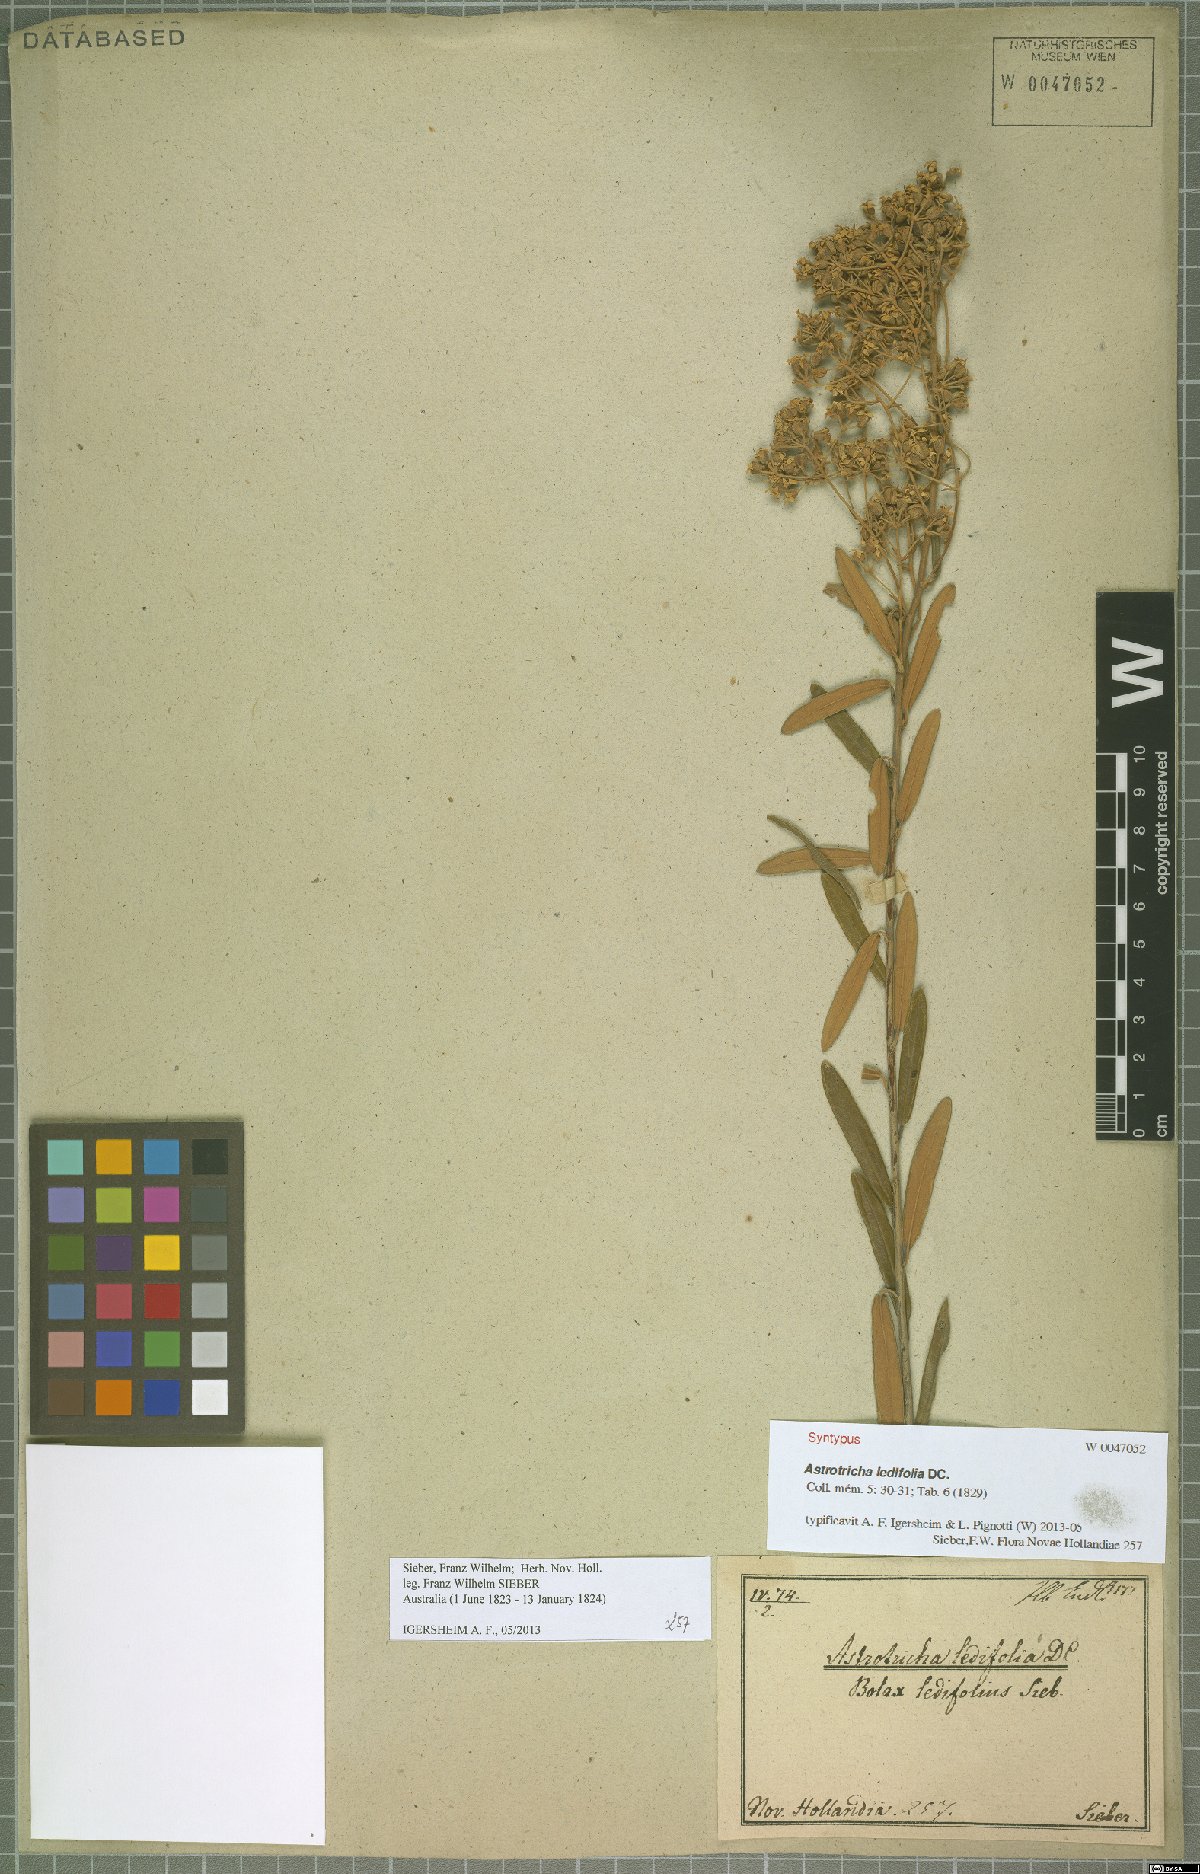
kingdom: Plantae
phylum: Tracheophyta
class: Magnoliopsida
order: Apiales
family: Araliaceae
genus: Astrotricha
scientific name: Astrotricha ledifolia
